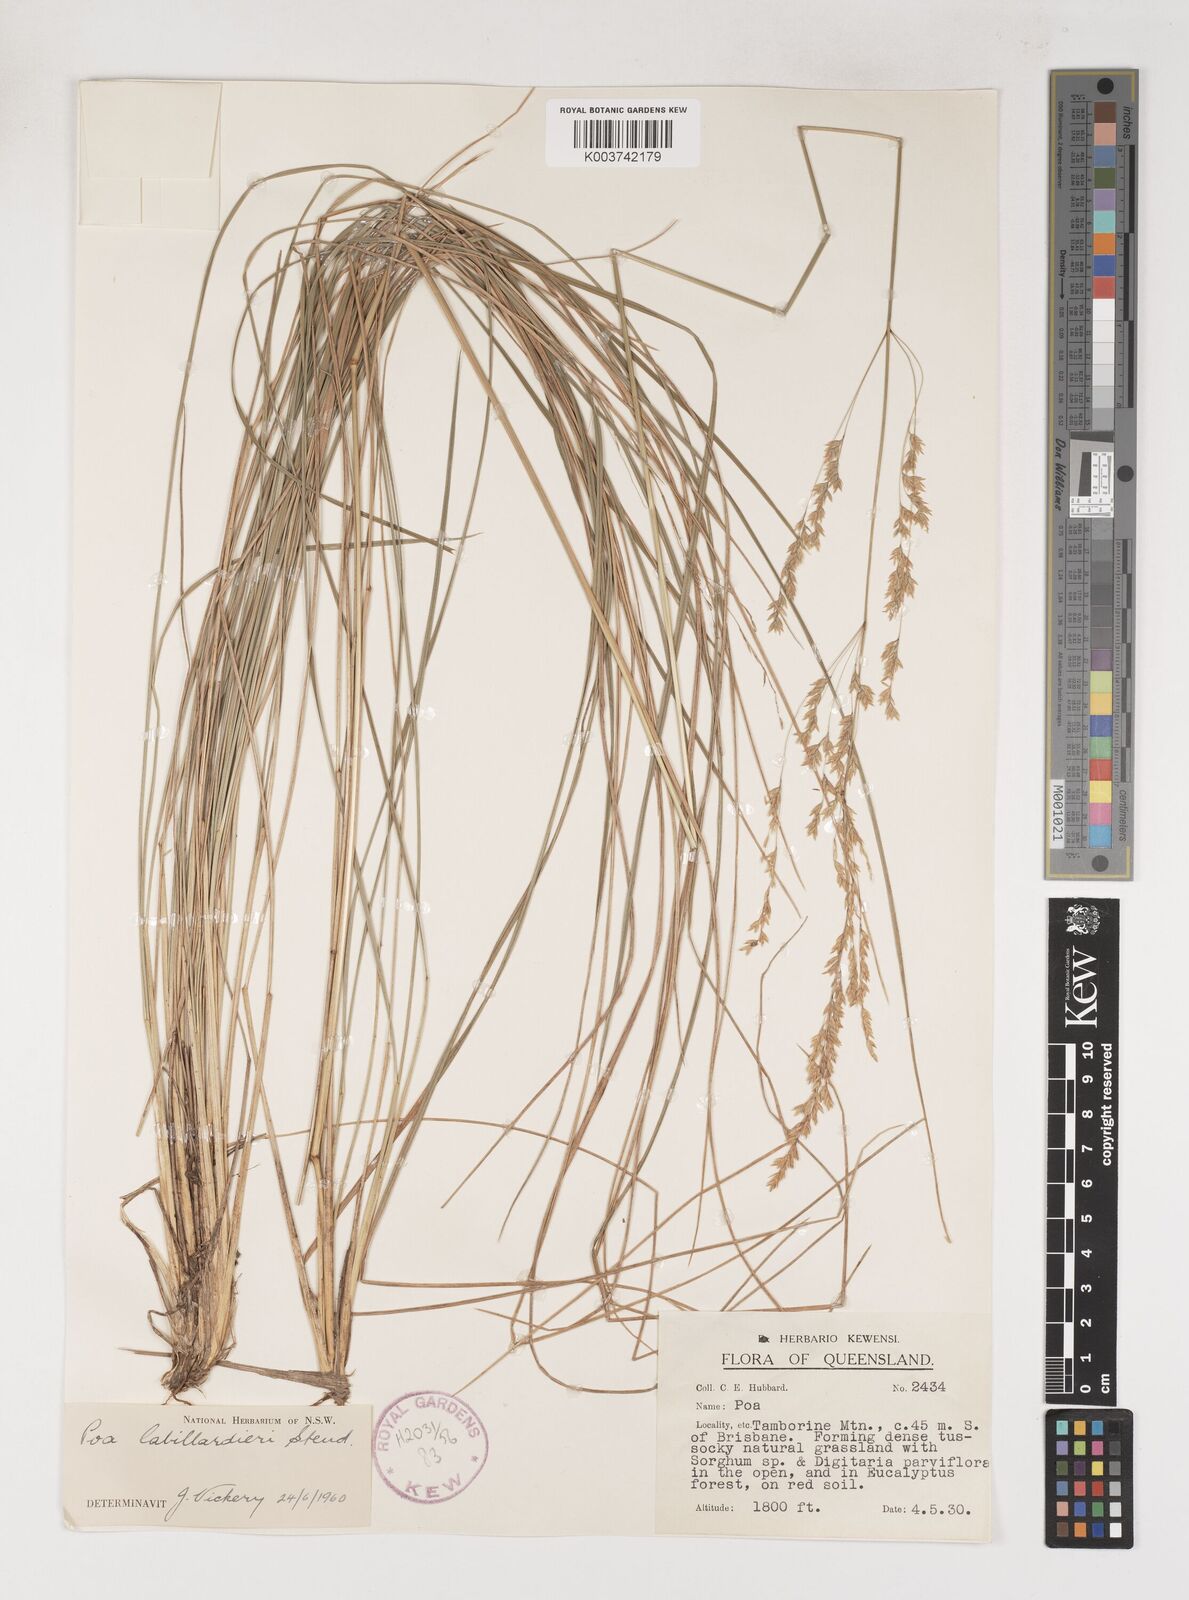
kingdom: Plantae
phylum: Tracheophyta
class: Liliopsida
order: Poales
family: Poaceae
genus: Poa
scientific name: Poa labillardierei
